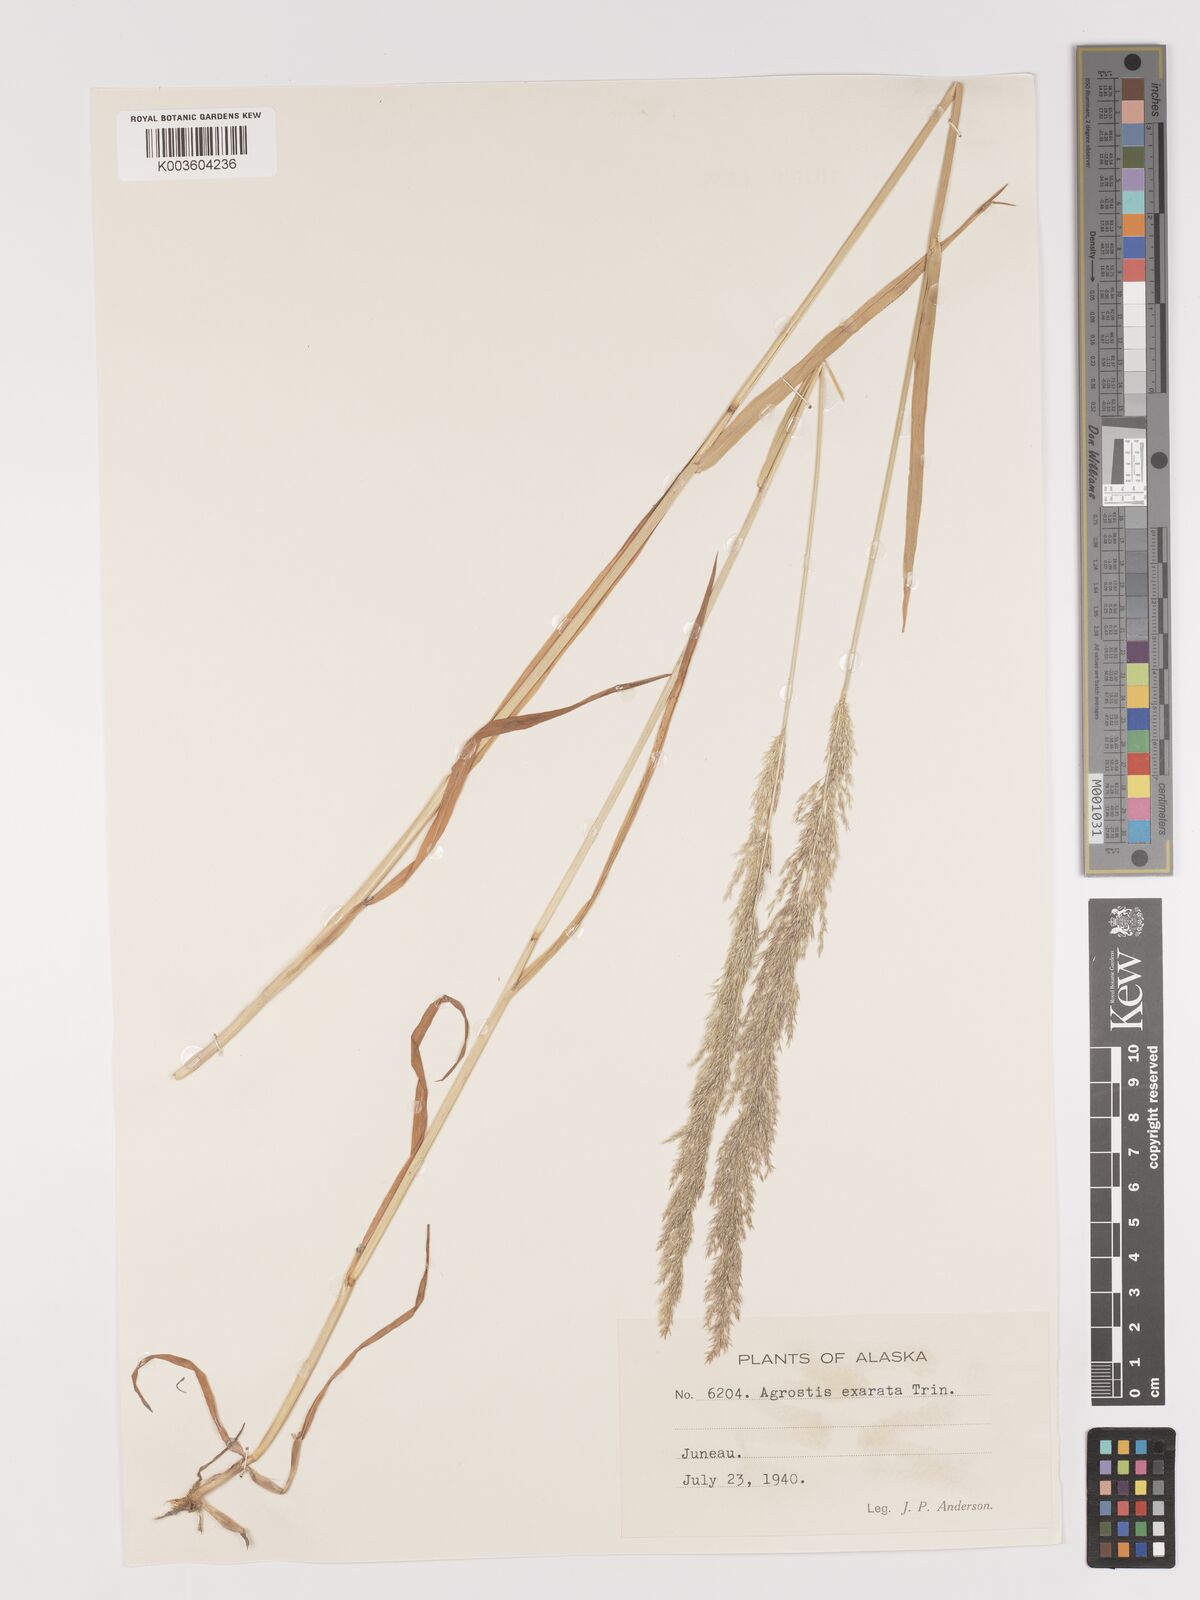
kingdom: Plantae
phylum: Tracheophyta
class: Liliopsida
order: Poales
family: Poaceae
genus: Agrostis
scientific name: Agrostis exarata
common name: Spike bent
